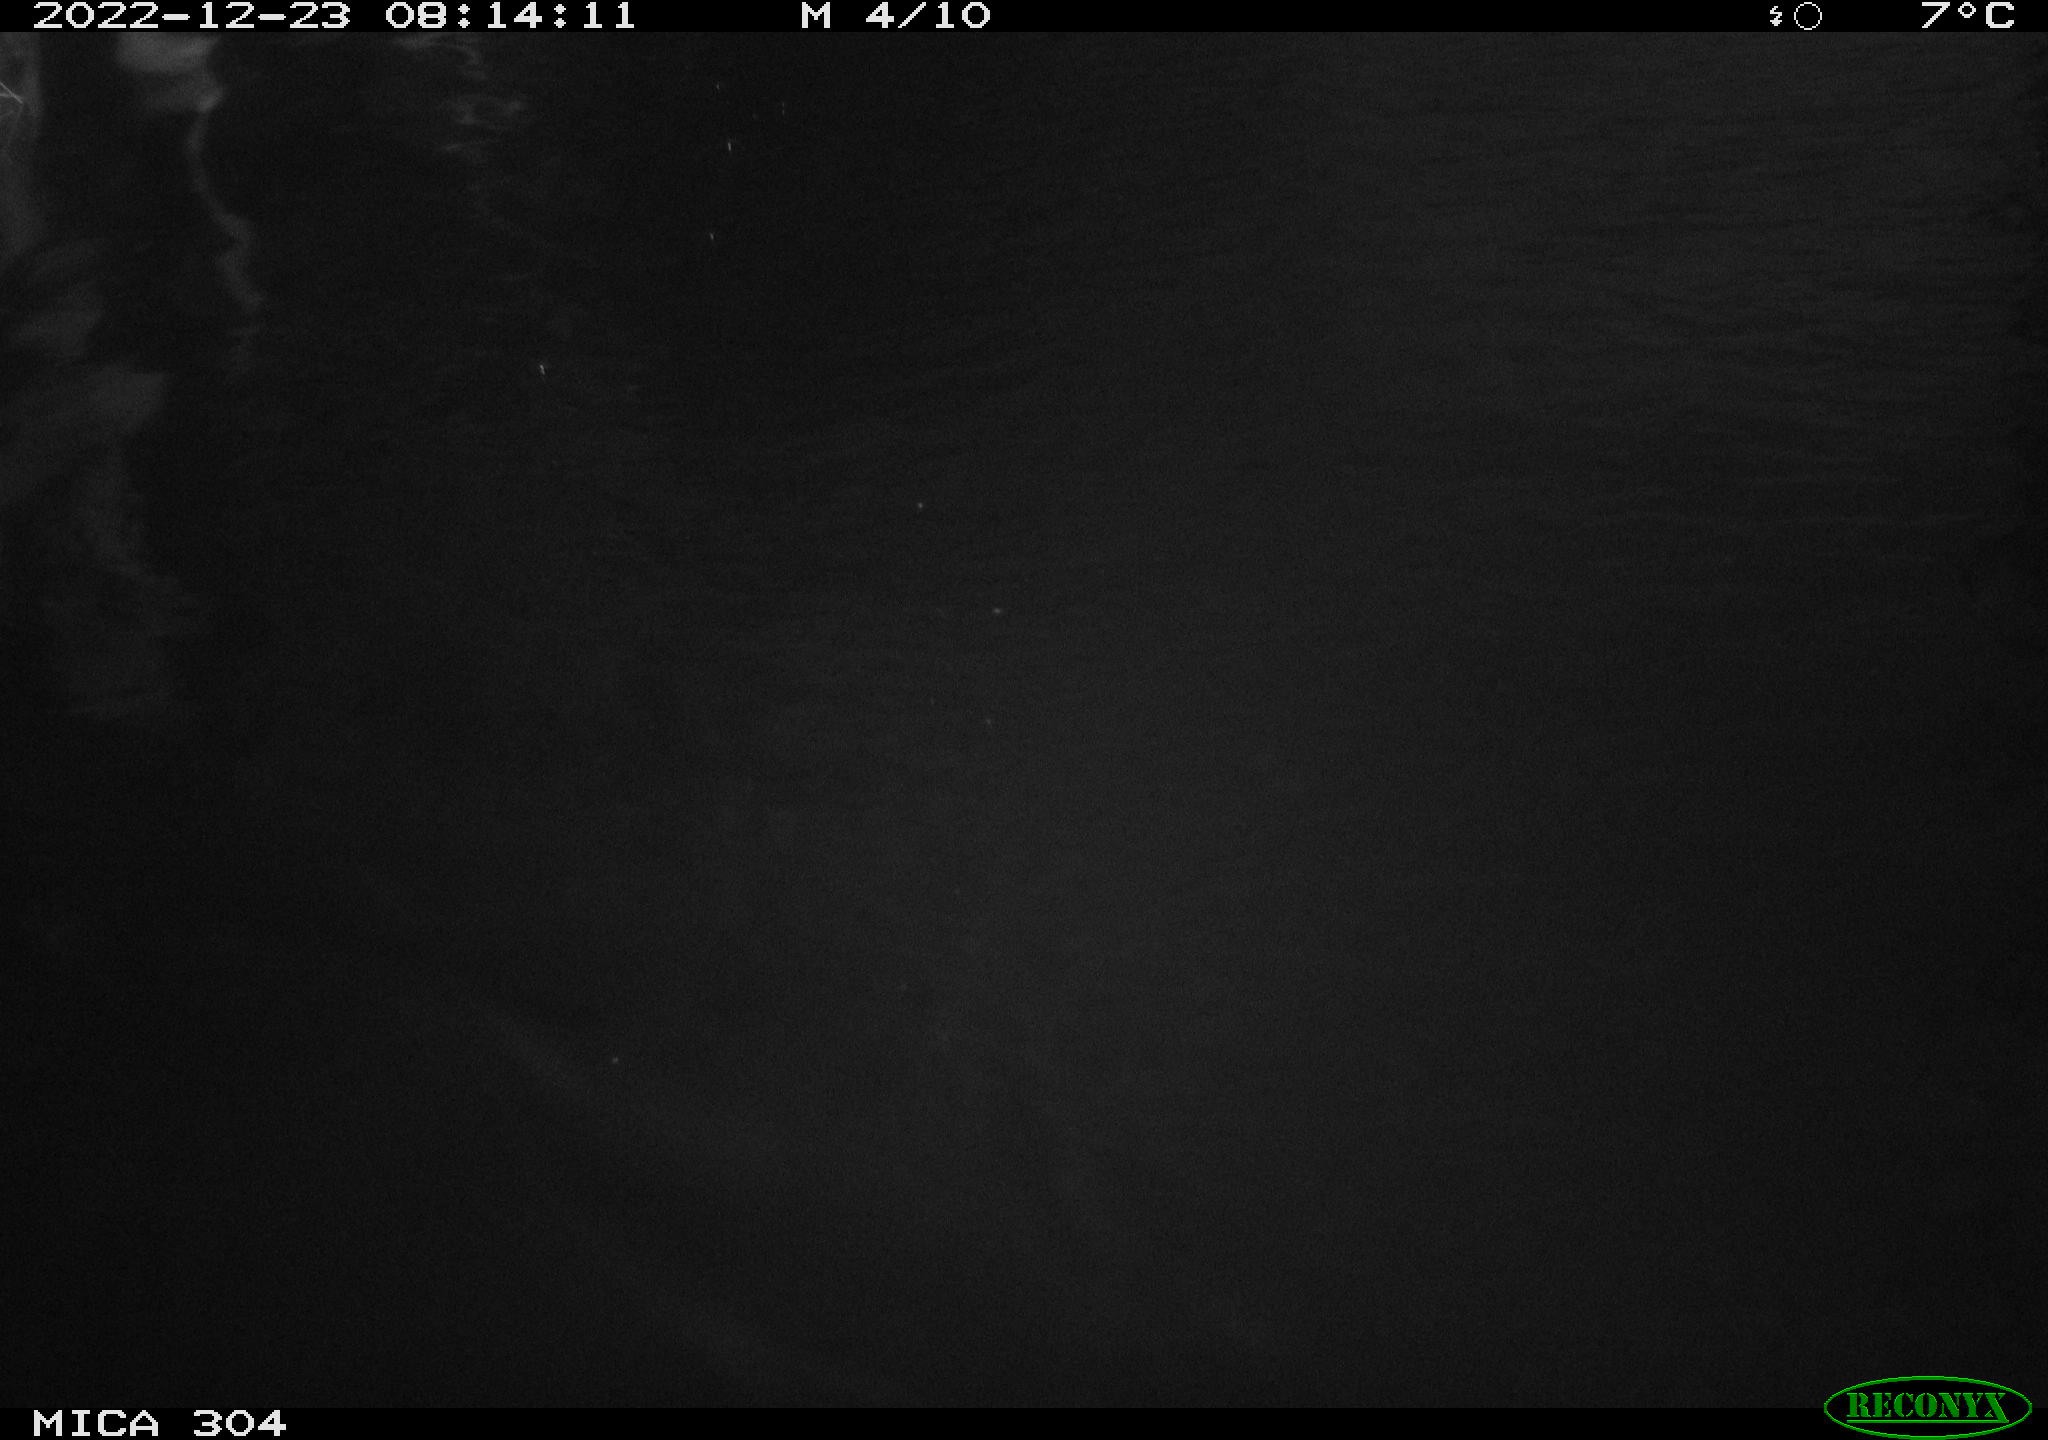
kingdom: Animalia
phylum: Chordata
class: Aves
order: Anseriformes
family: Anatidae
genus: Anas
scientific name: Anas
